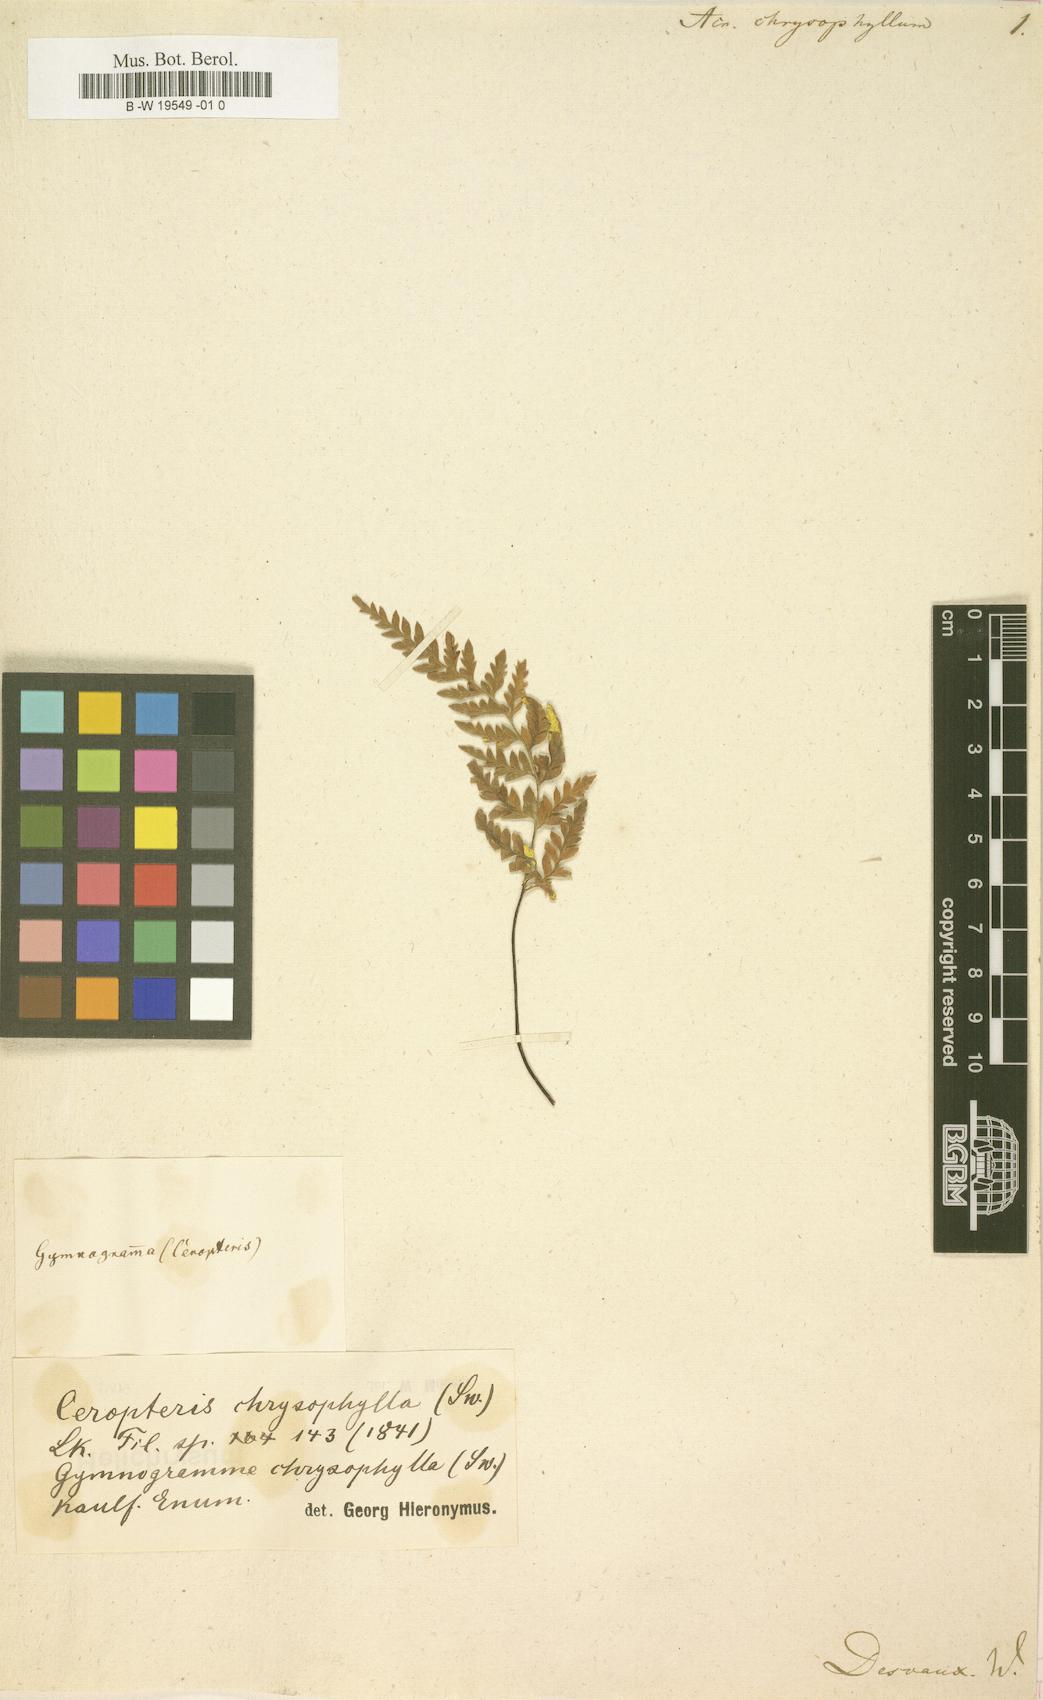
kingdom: Plantae
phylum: Tracheophyta
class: Polypodiopsida
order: Polypodiales
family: Pteridaceae
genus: Pityrogramma
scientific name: Pityrogramma chrysophylla
